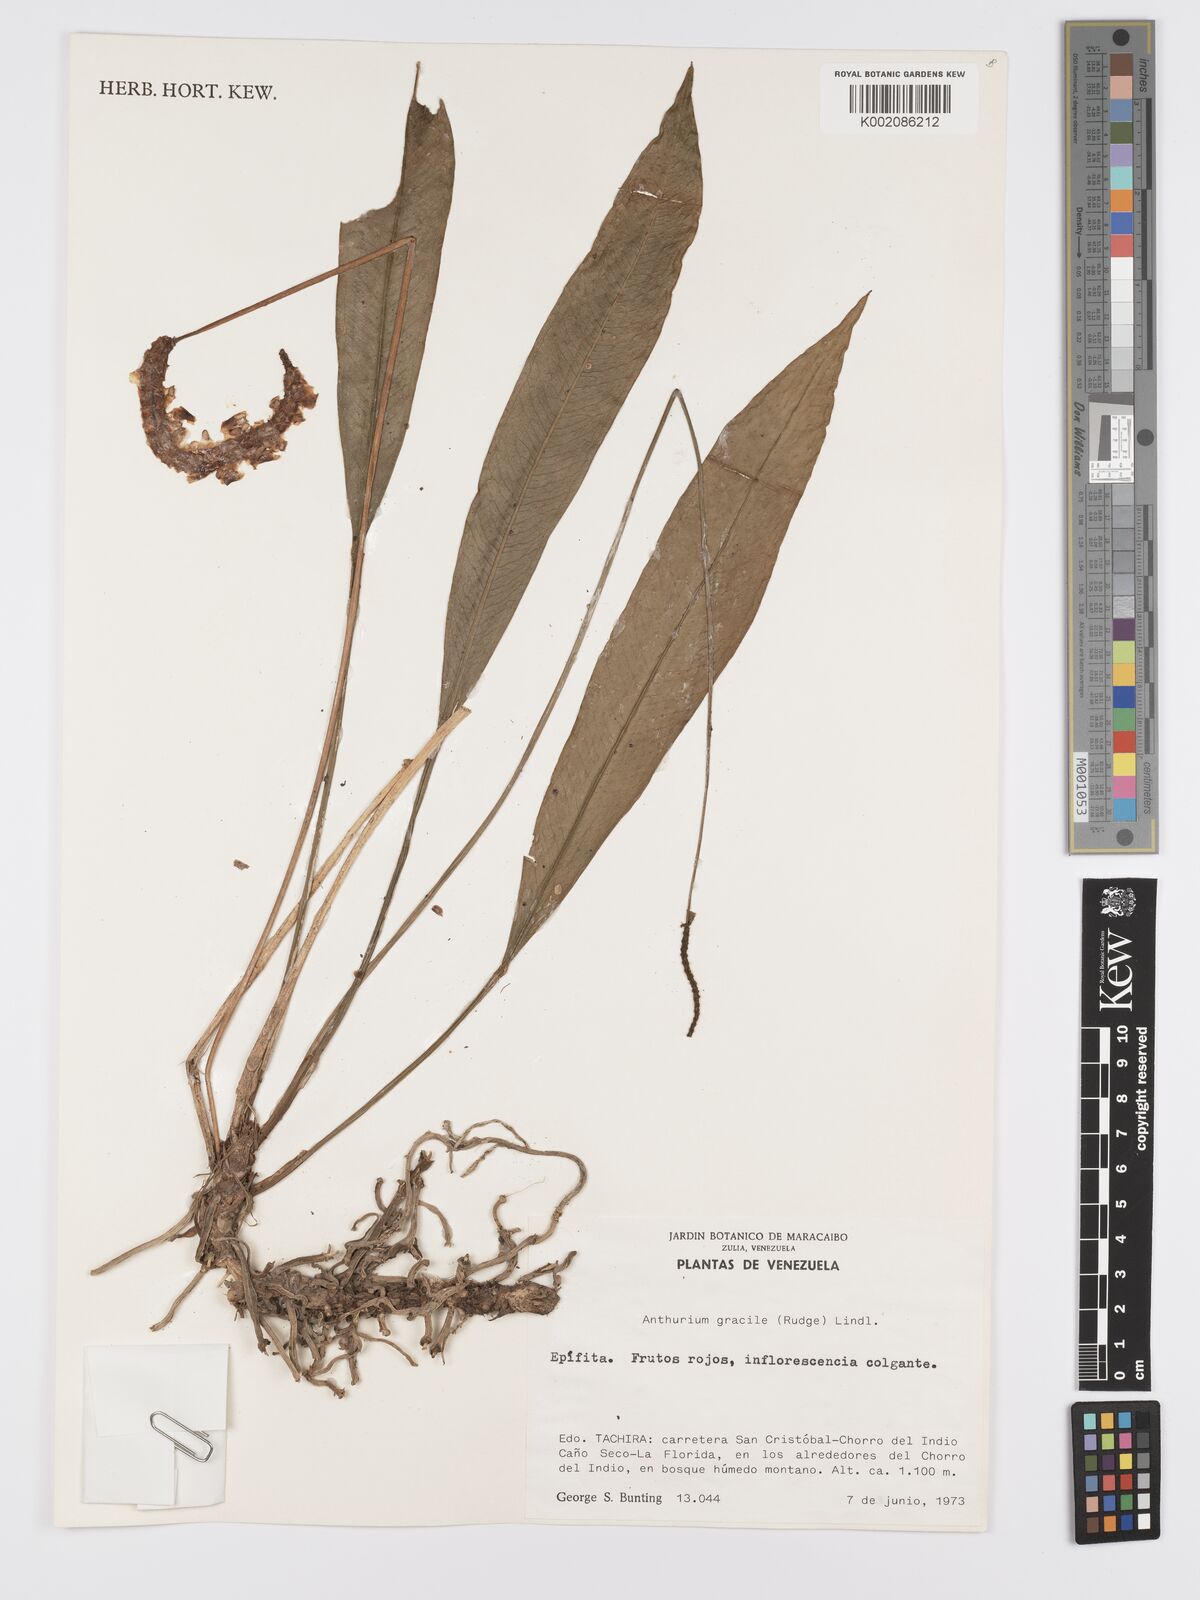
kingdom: Plantae
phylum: Tracheophyta
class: Liliopsida
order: Alismatales
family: Araceae
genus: Anthurium
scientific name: Anthurium gracile
